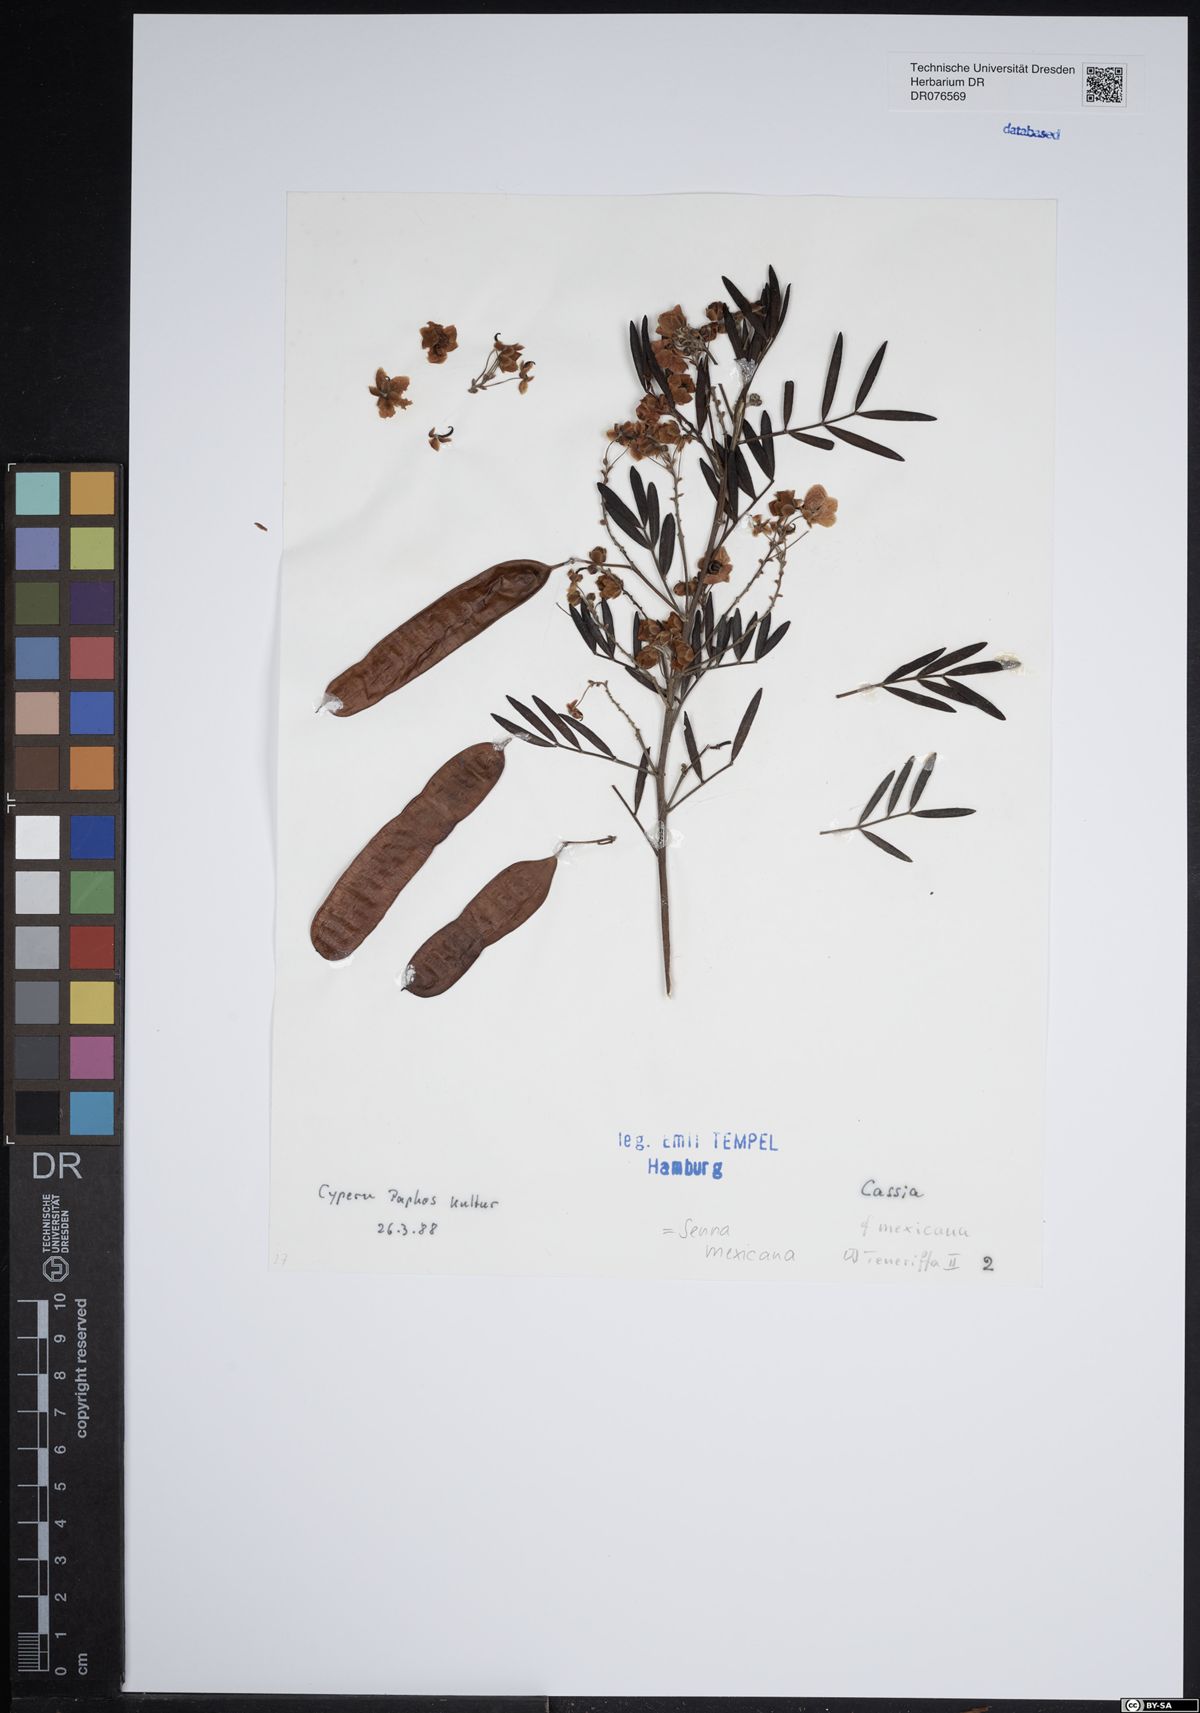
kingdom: Plantae
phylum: Tracheophyta
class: Magnoliopsida
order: Fabales
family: Fabaceae
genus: Senna
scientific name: Senna mexicana
